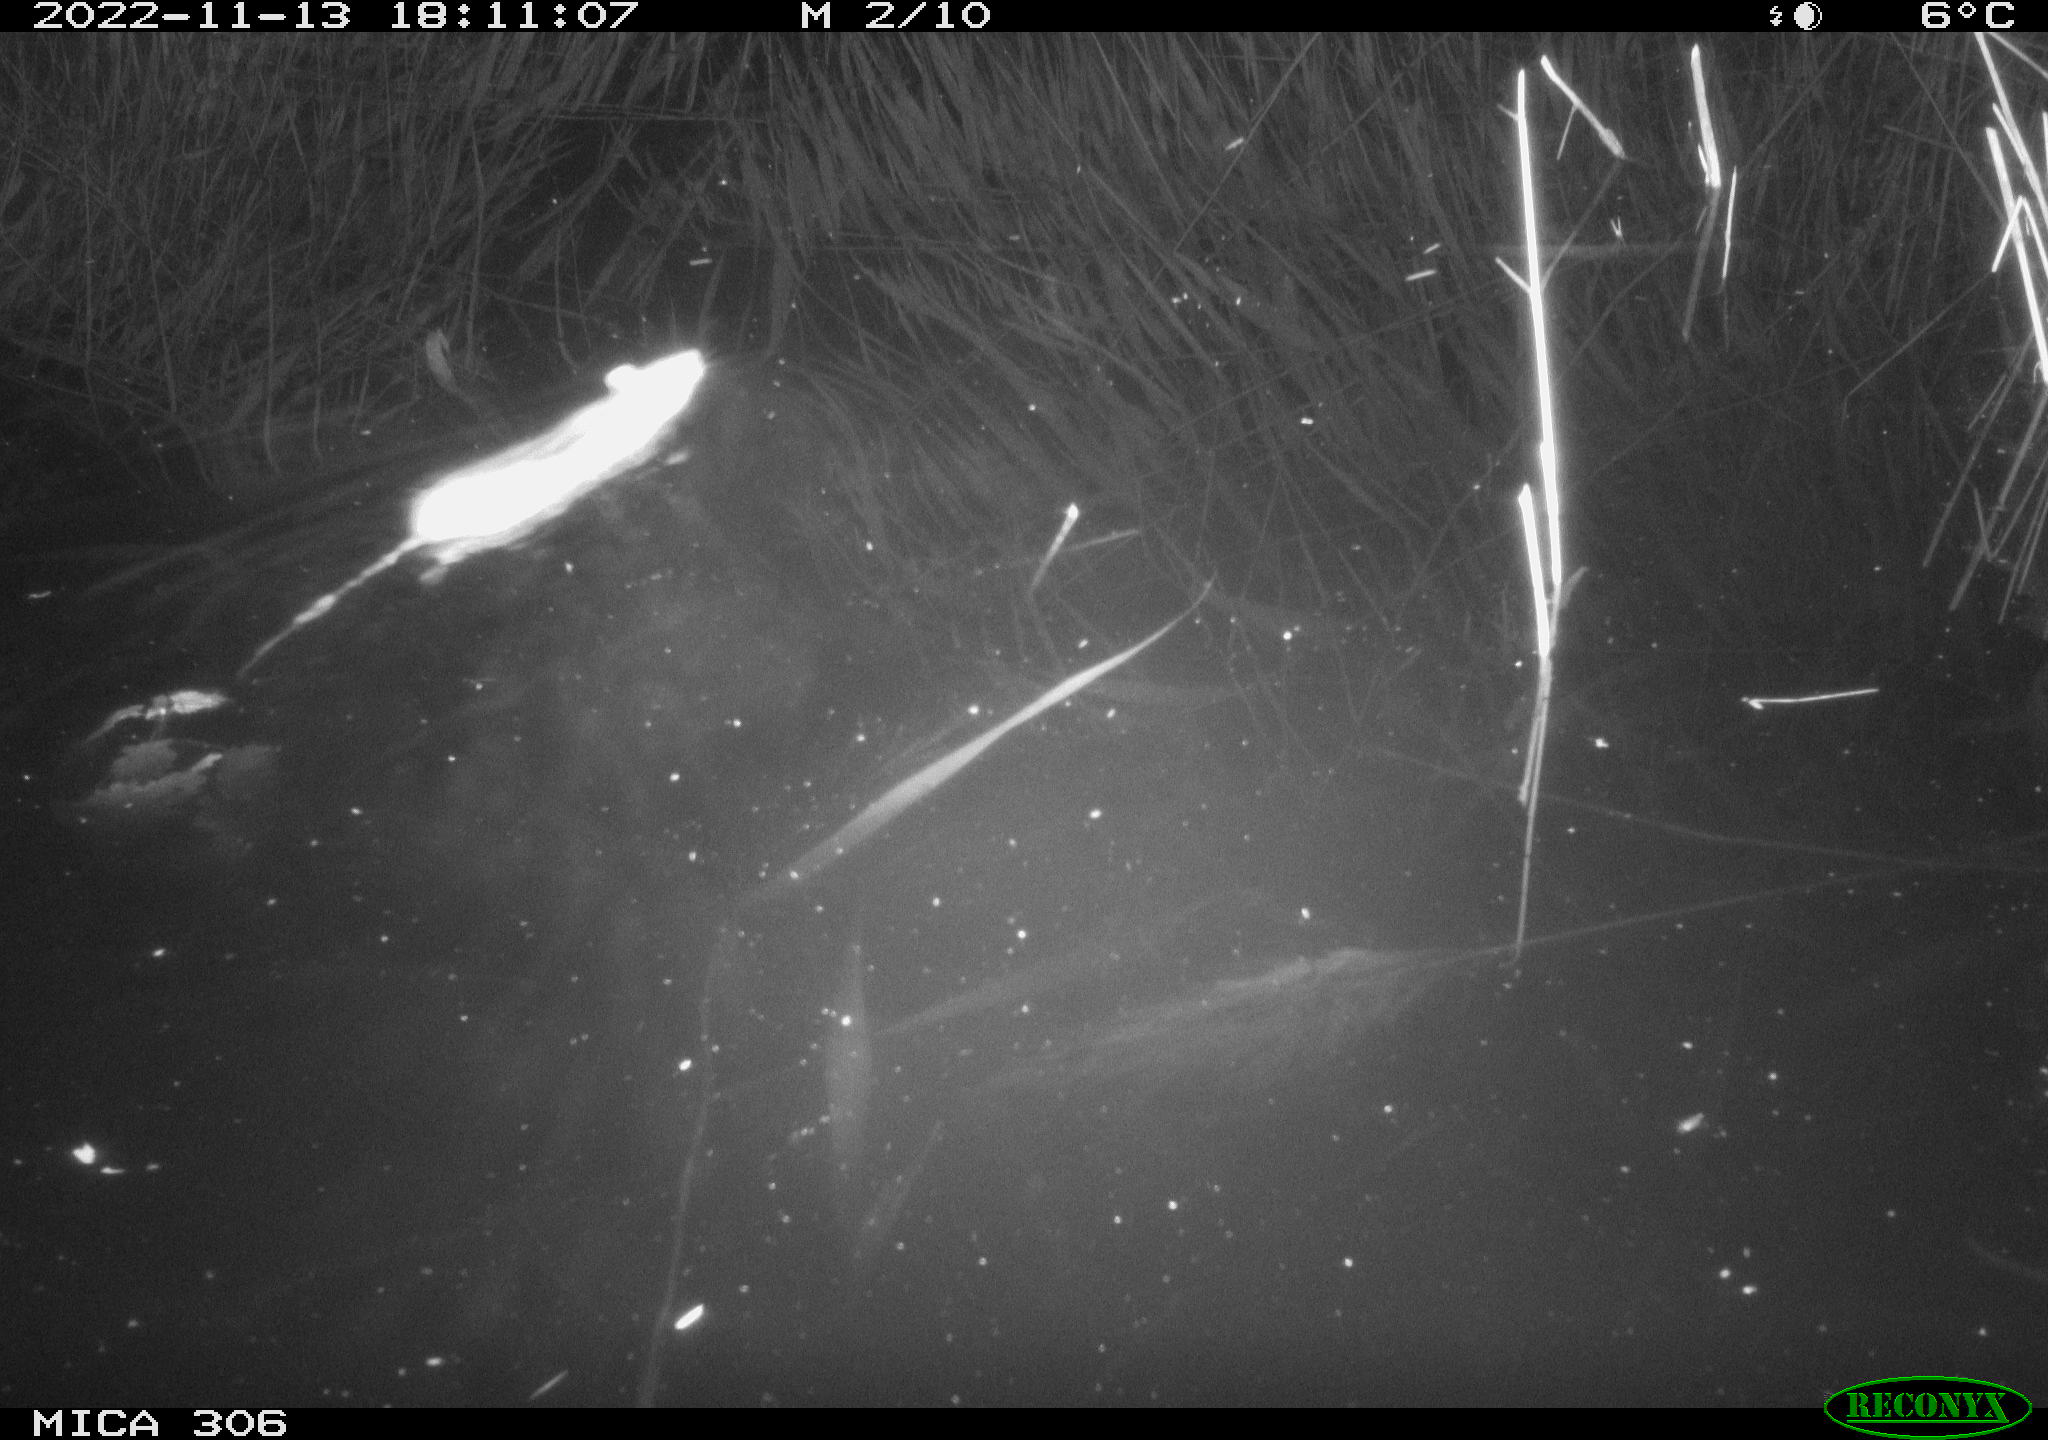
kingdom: Animalia
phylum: Chordata
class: Mammalia
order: Rodentia
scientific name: Rodentia
